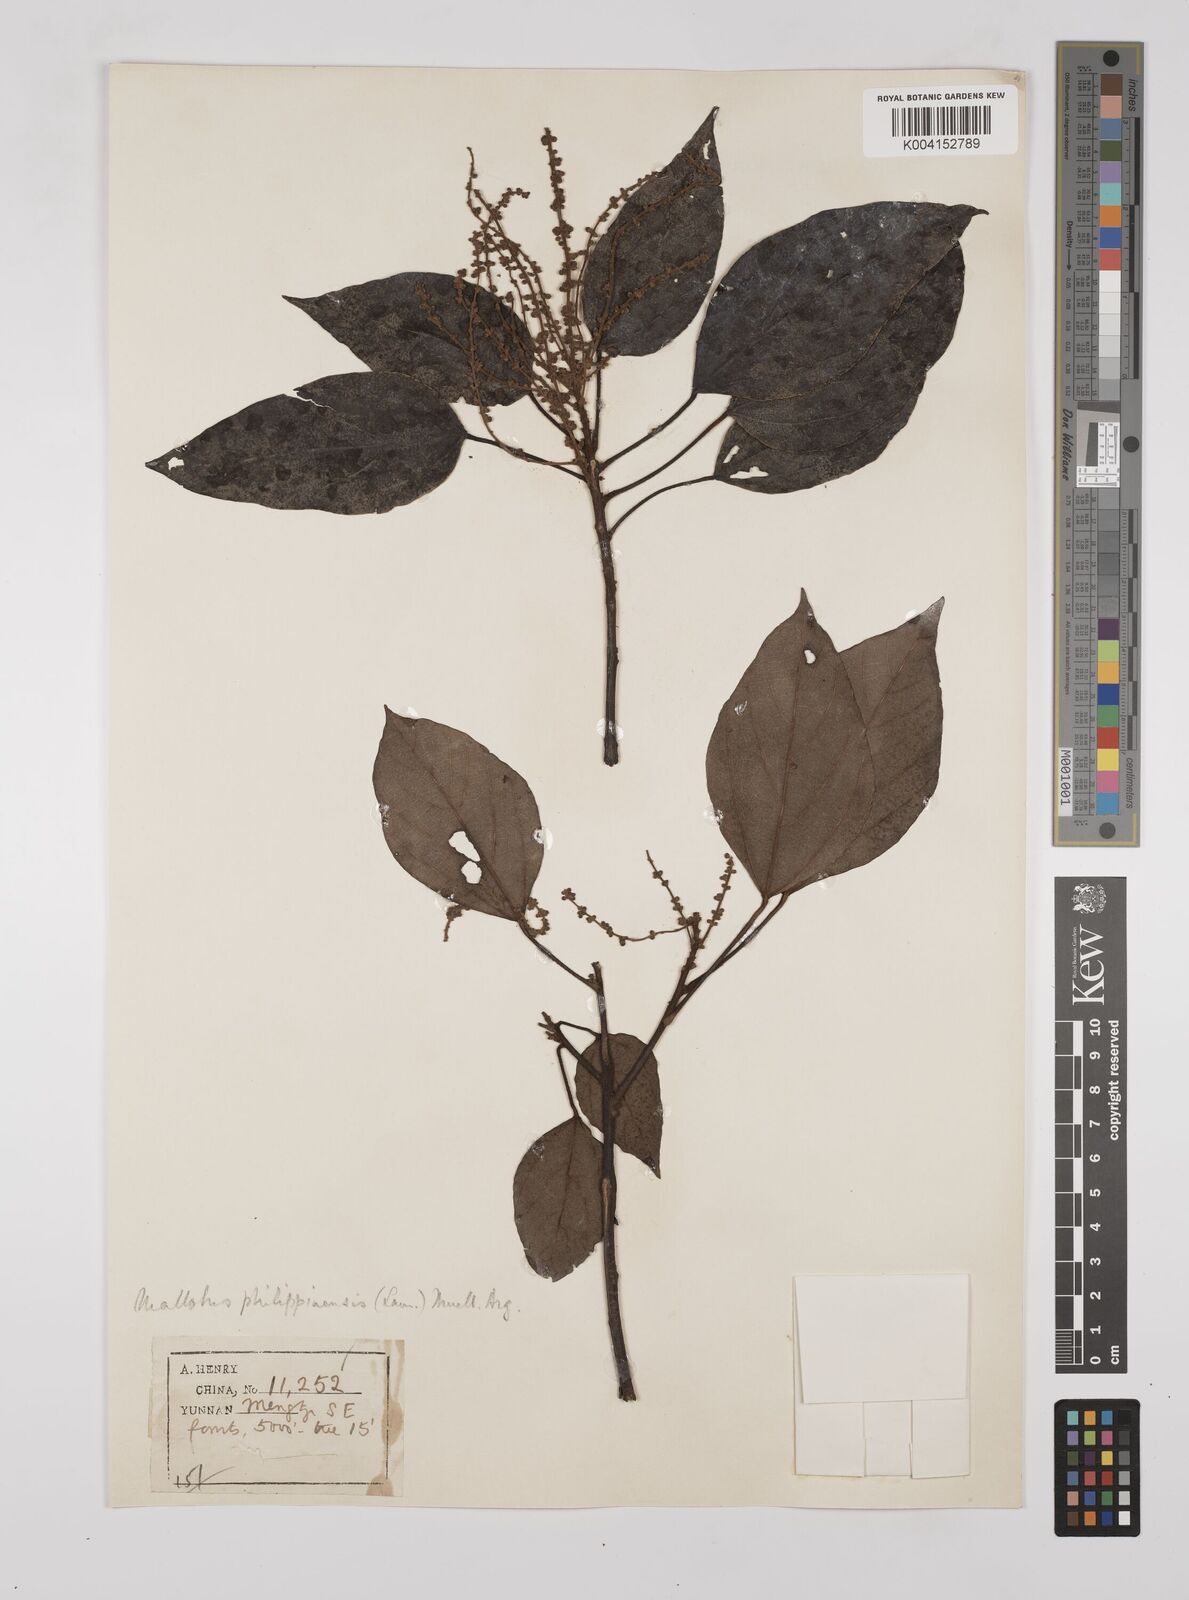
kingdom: Plantae
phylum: Tracheophyta
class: Magnoliopsida
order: Malpighiales
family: Euphorbiaceae
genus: Mallotus
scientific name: Mallotus philippensis
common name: Kamala tree
